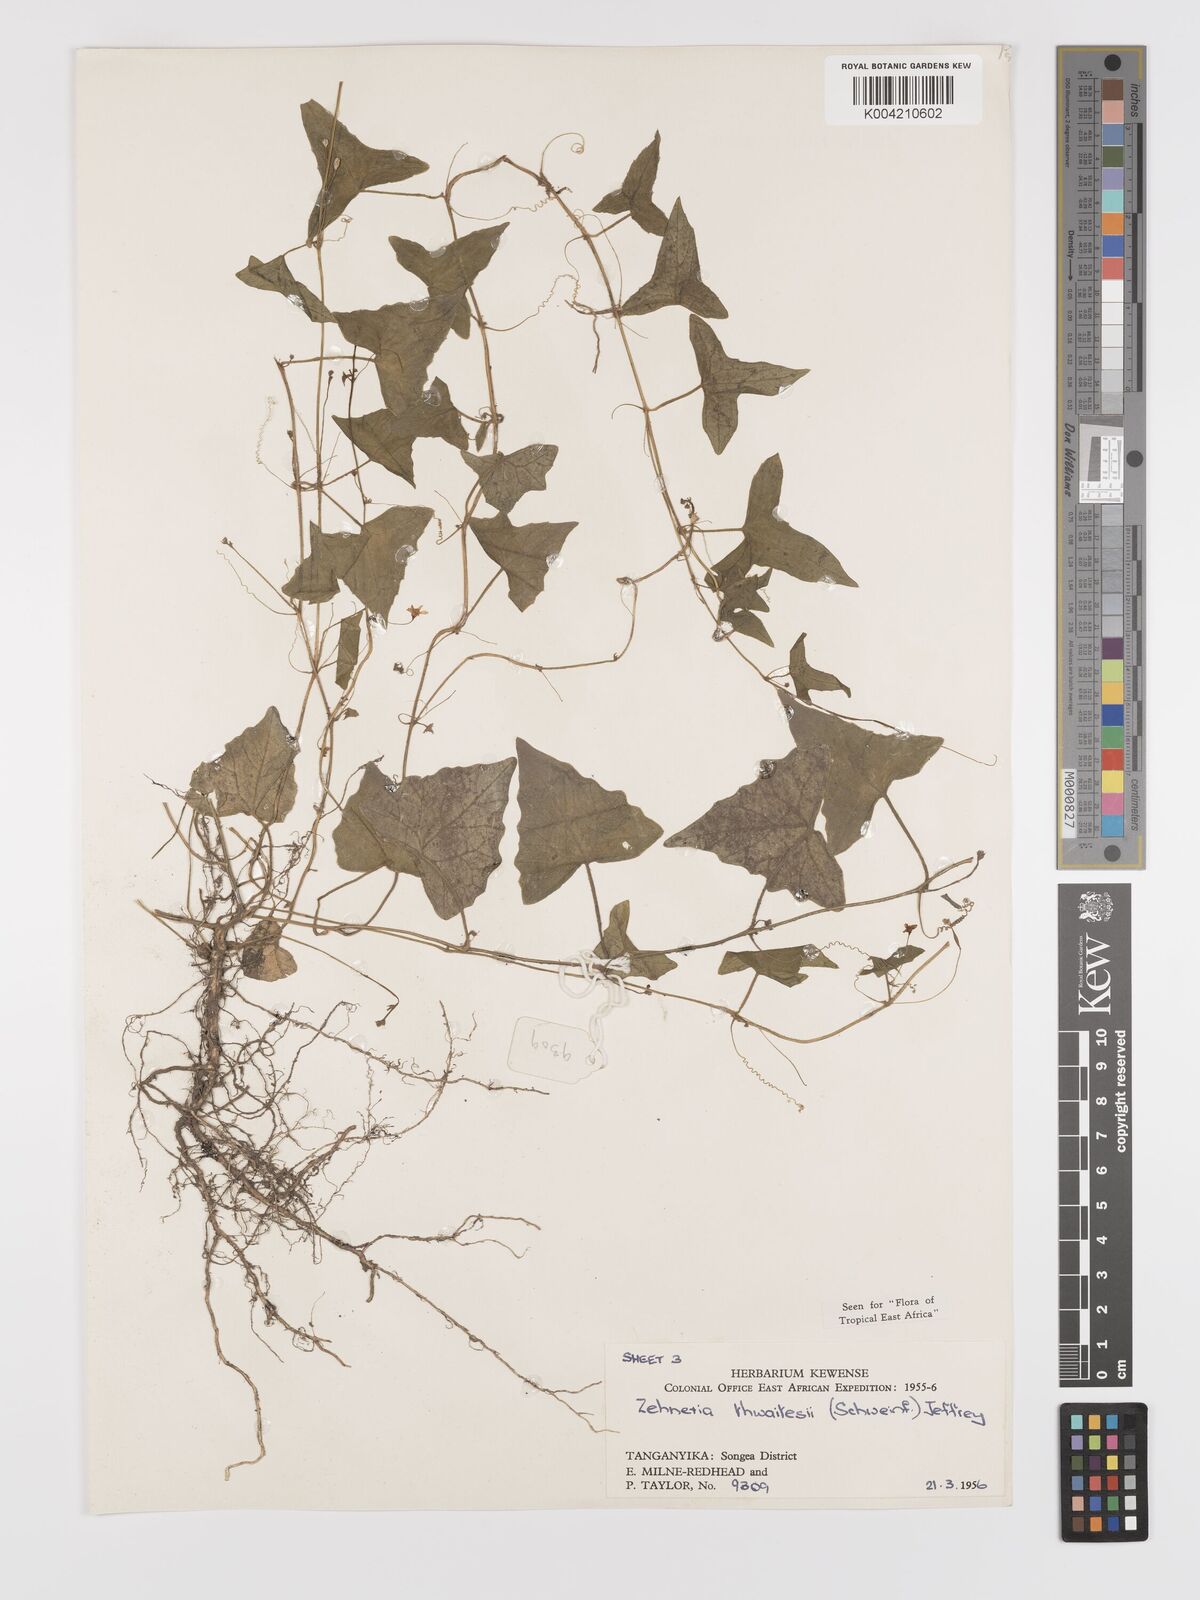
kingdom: Plantae
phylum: Tracheophyta
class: Magnoliopsida
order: Cucurbitales
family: Cucurbitaceae
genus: Zehneria
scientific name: Zehneria thwaitesii
